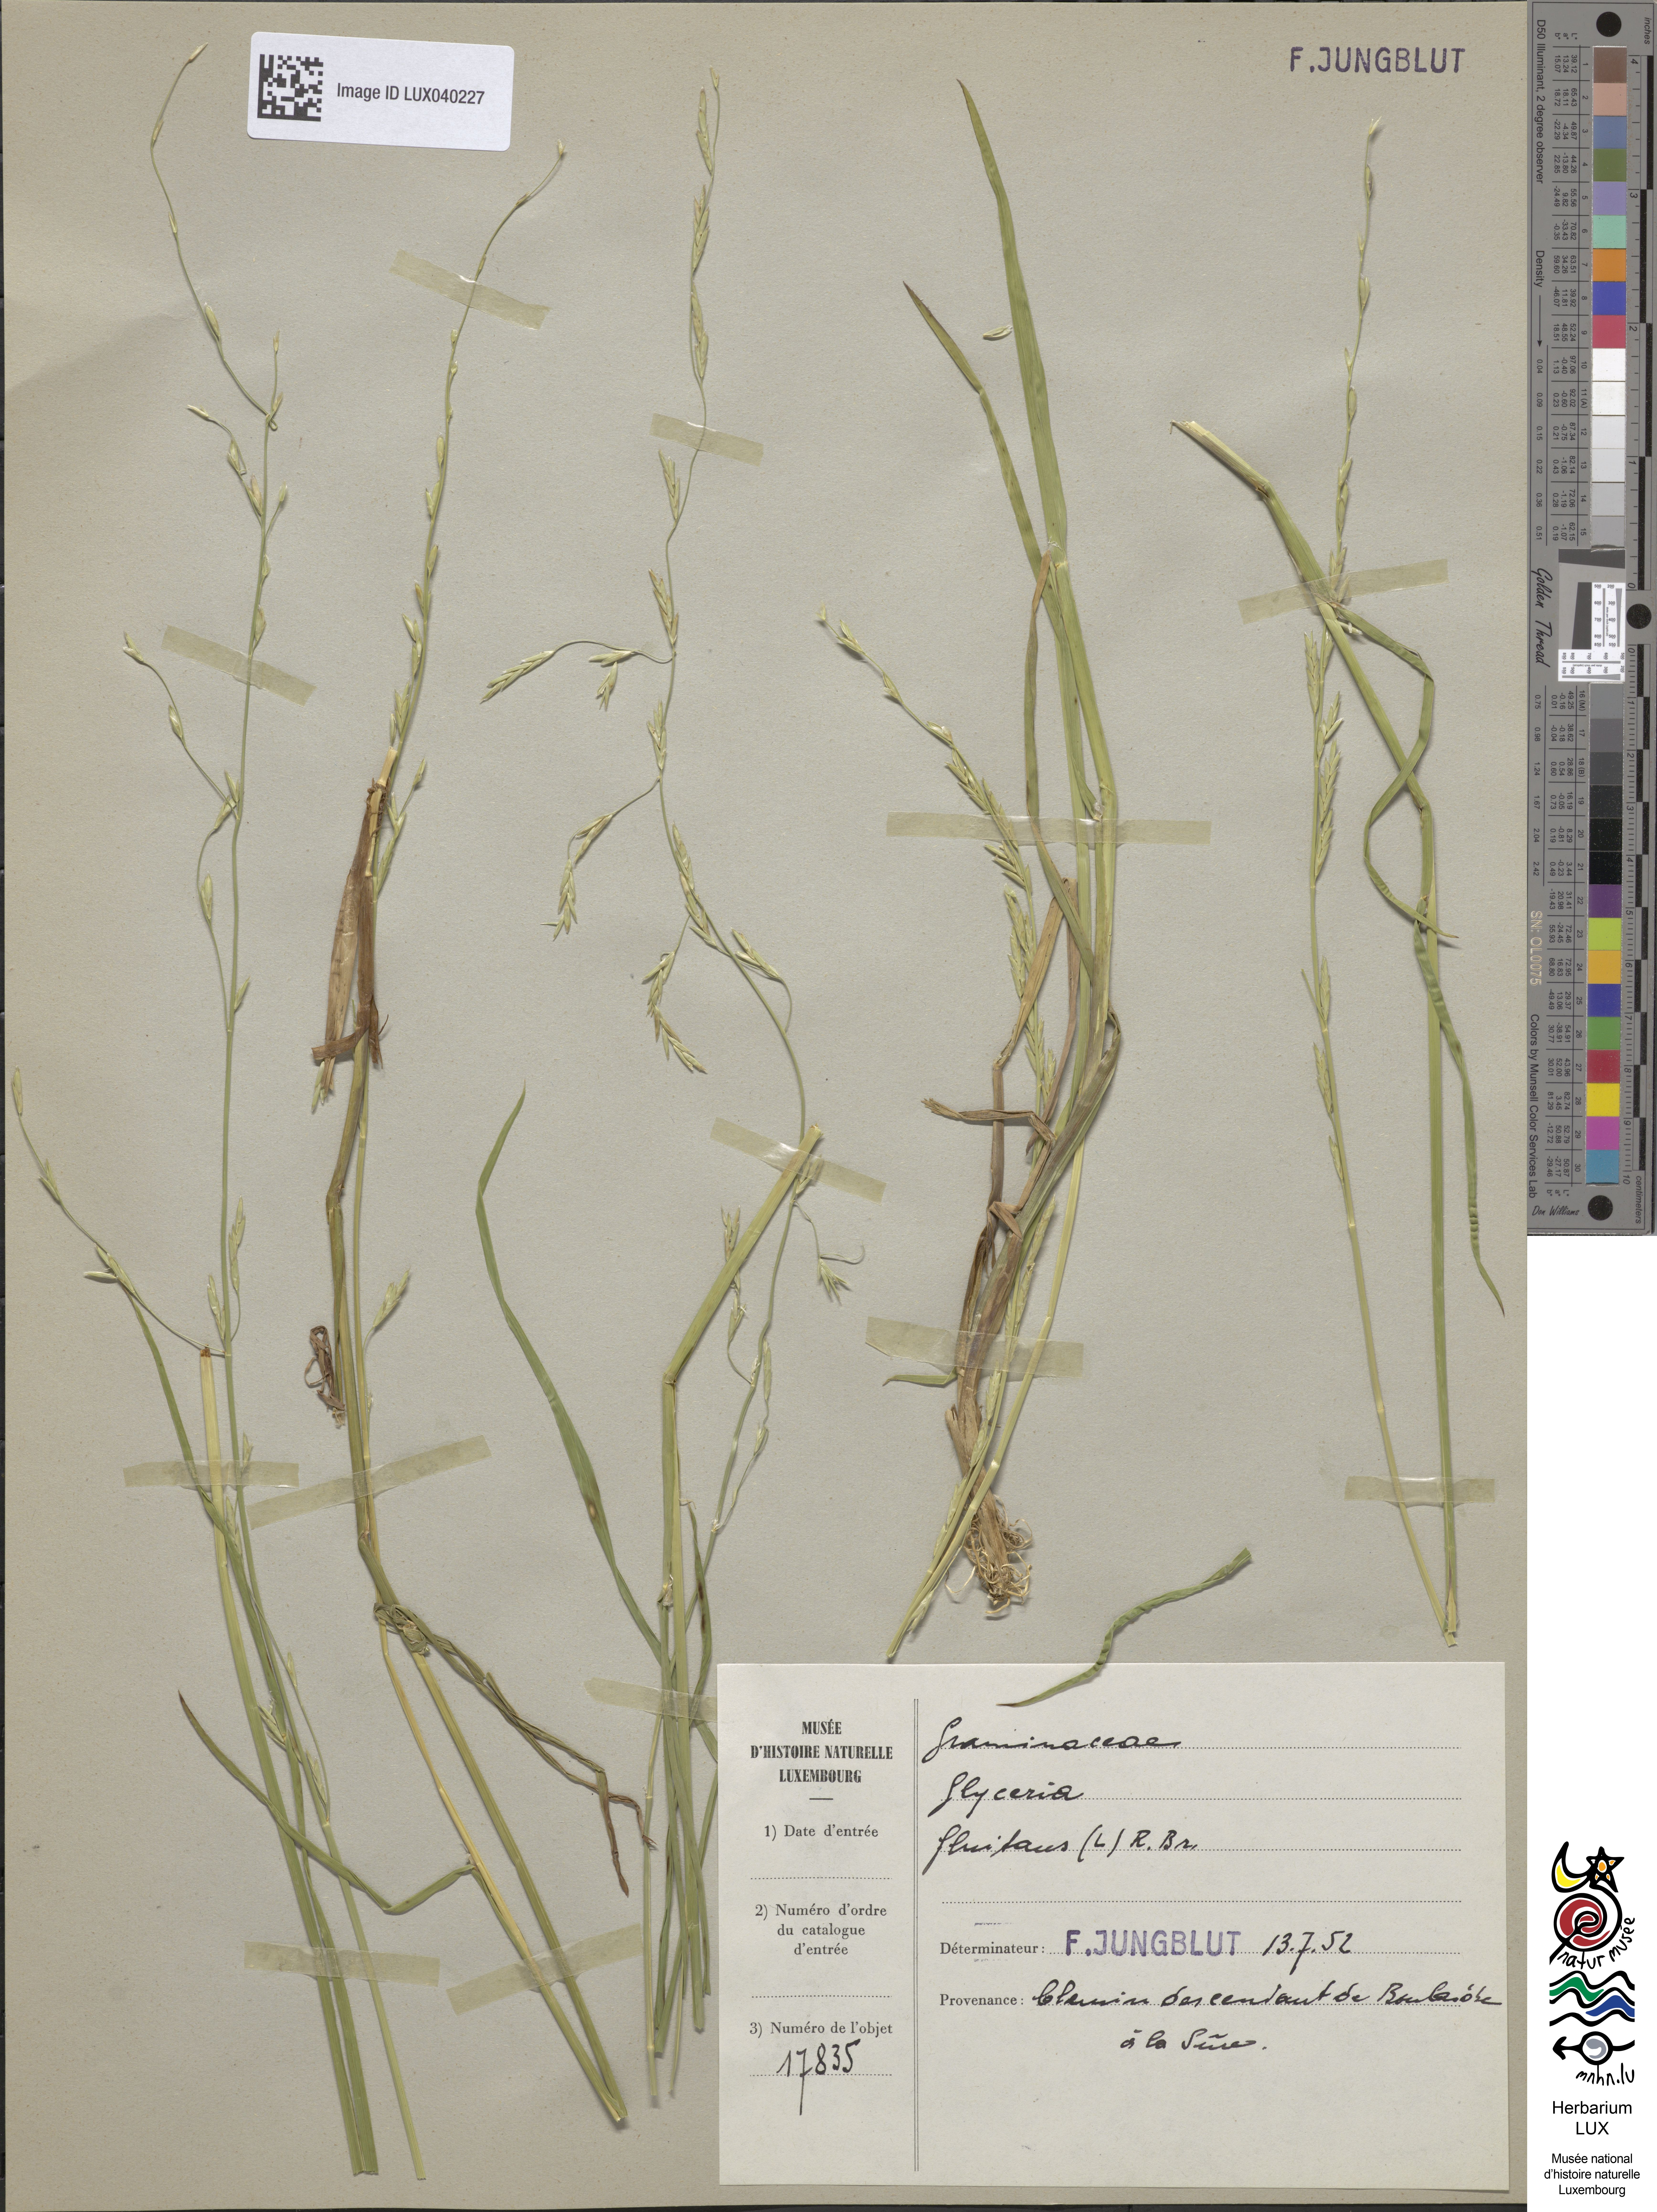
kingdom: Plantae
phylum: Tracheophyta
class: Liliopsida
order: Poales
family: Poaceae
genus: Glyceria
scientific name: Glyceria fluitans
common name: Floating sweet-grass
